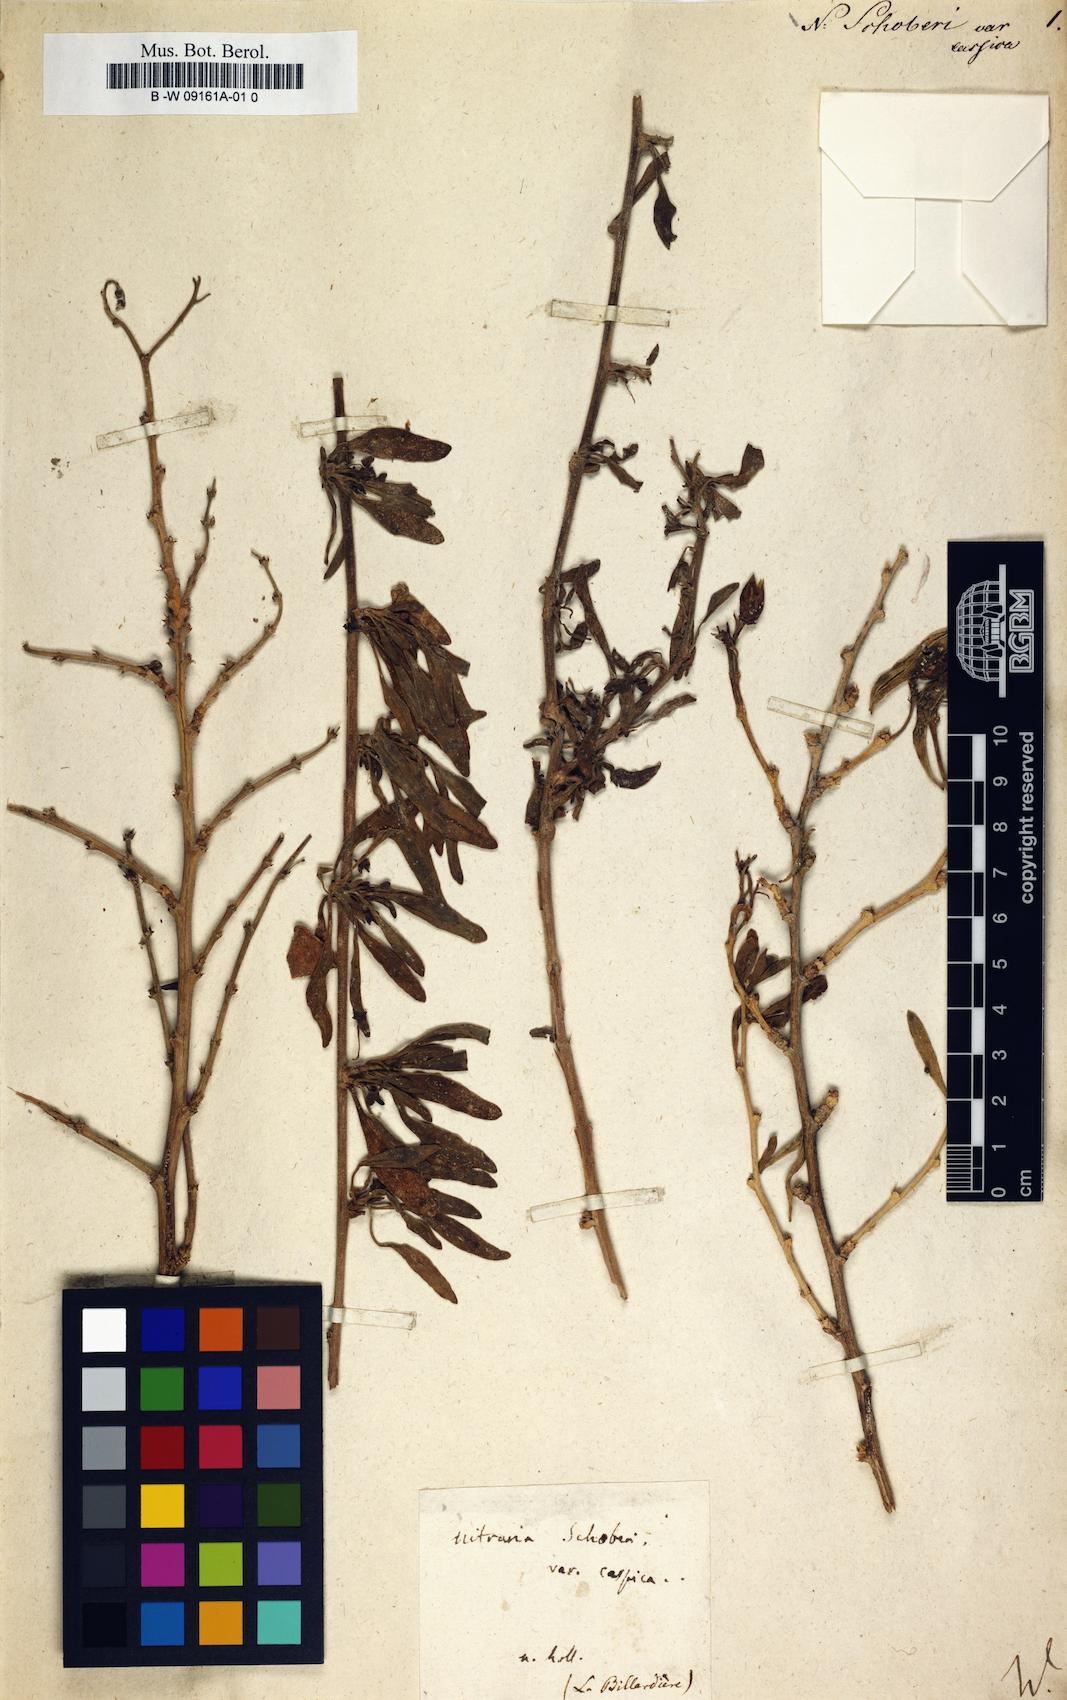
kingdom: Plantae
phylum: Tracheophyta
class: Magnoliopsida
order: Sapindales
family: Nitrariaceae
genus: Nitraria
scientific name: Nitraria schoberi
